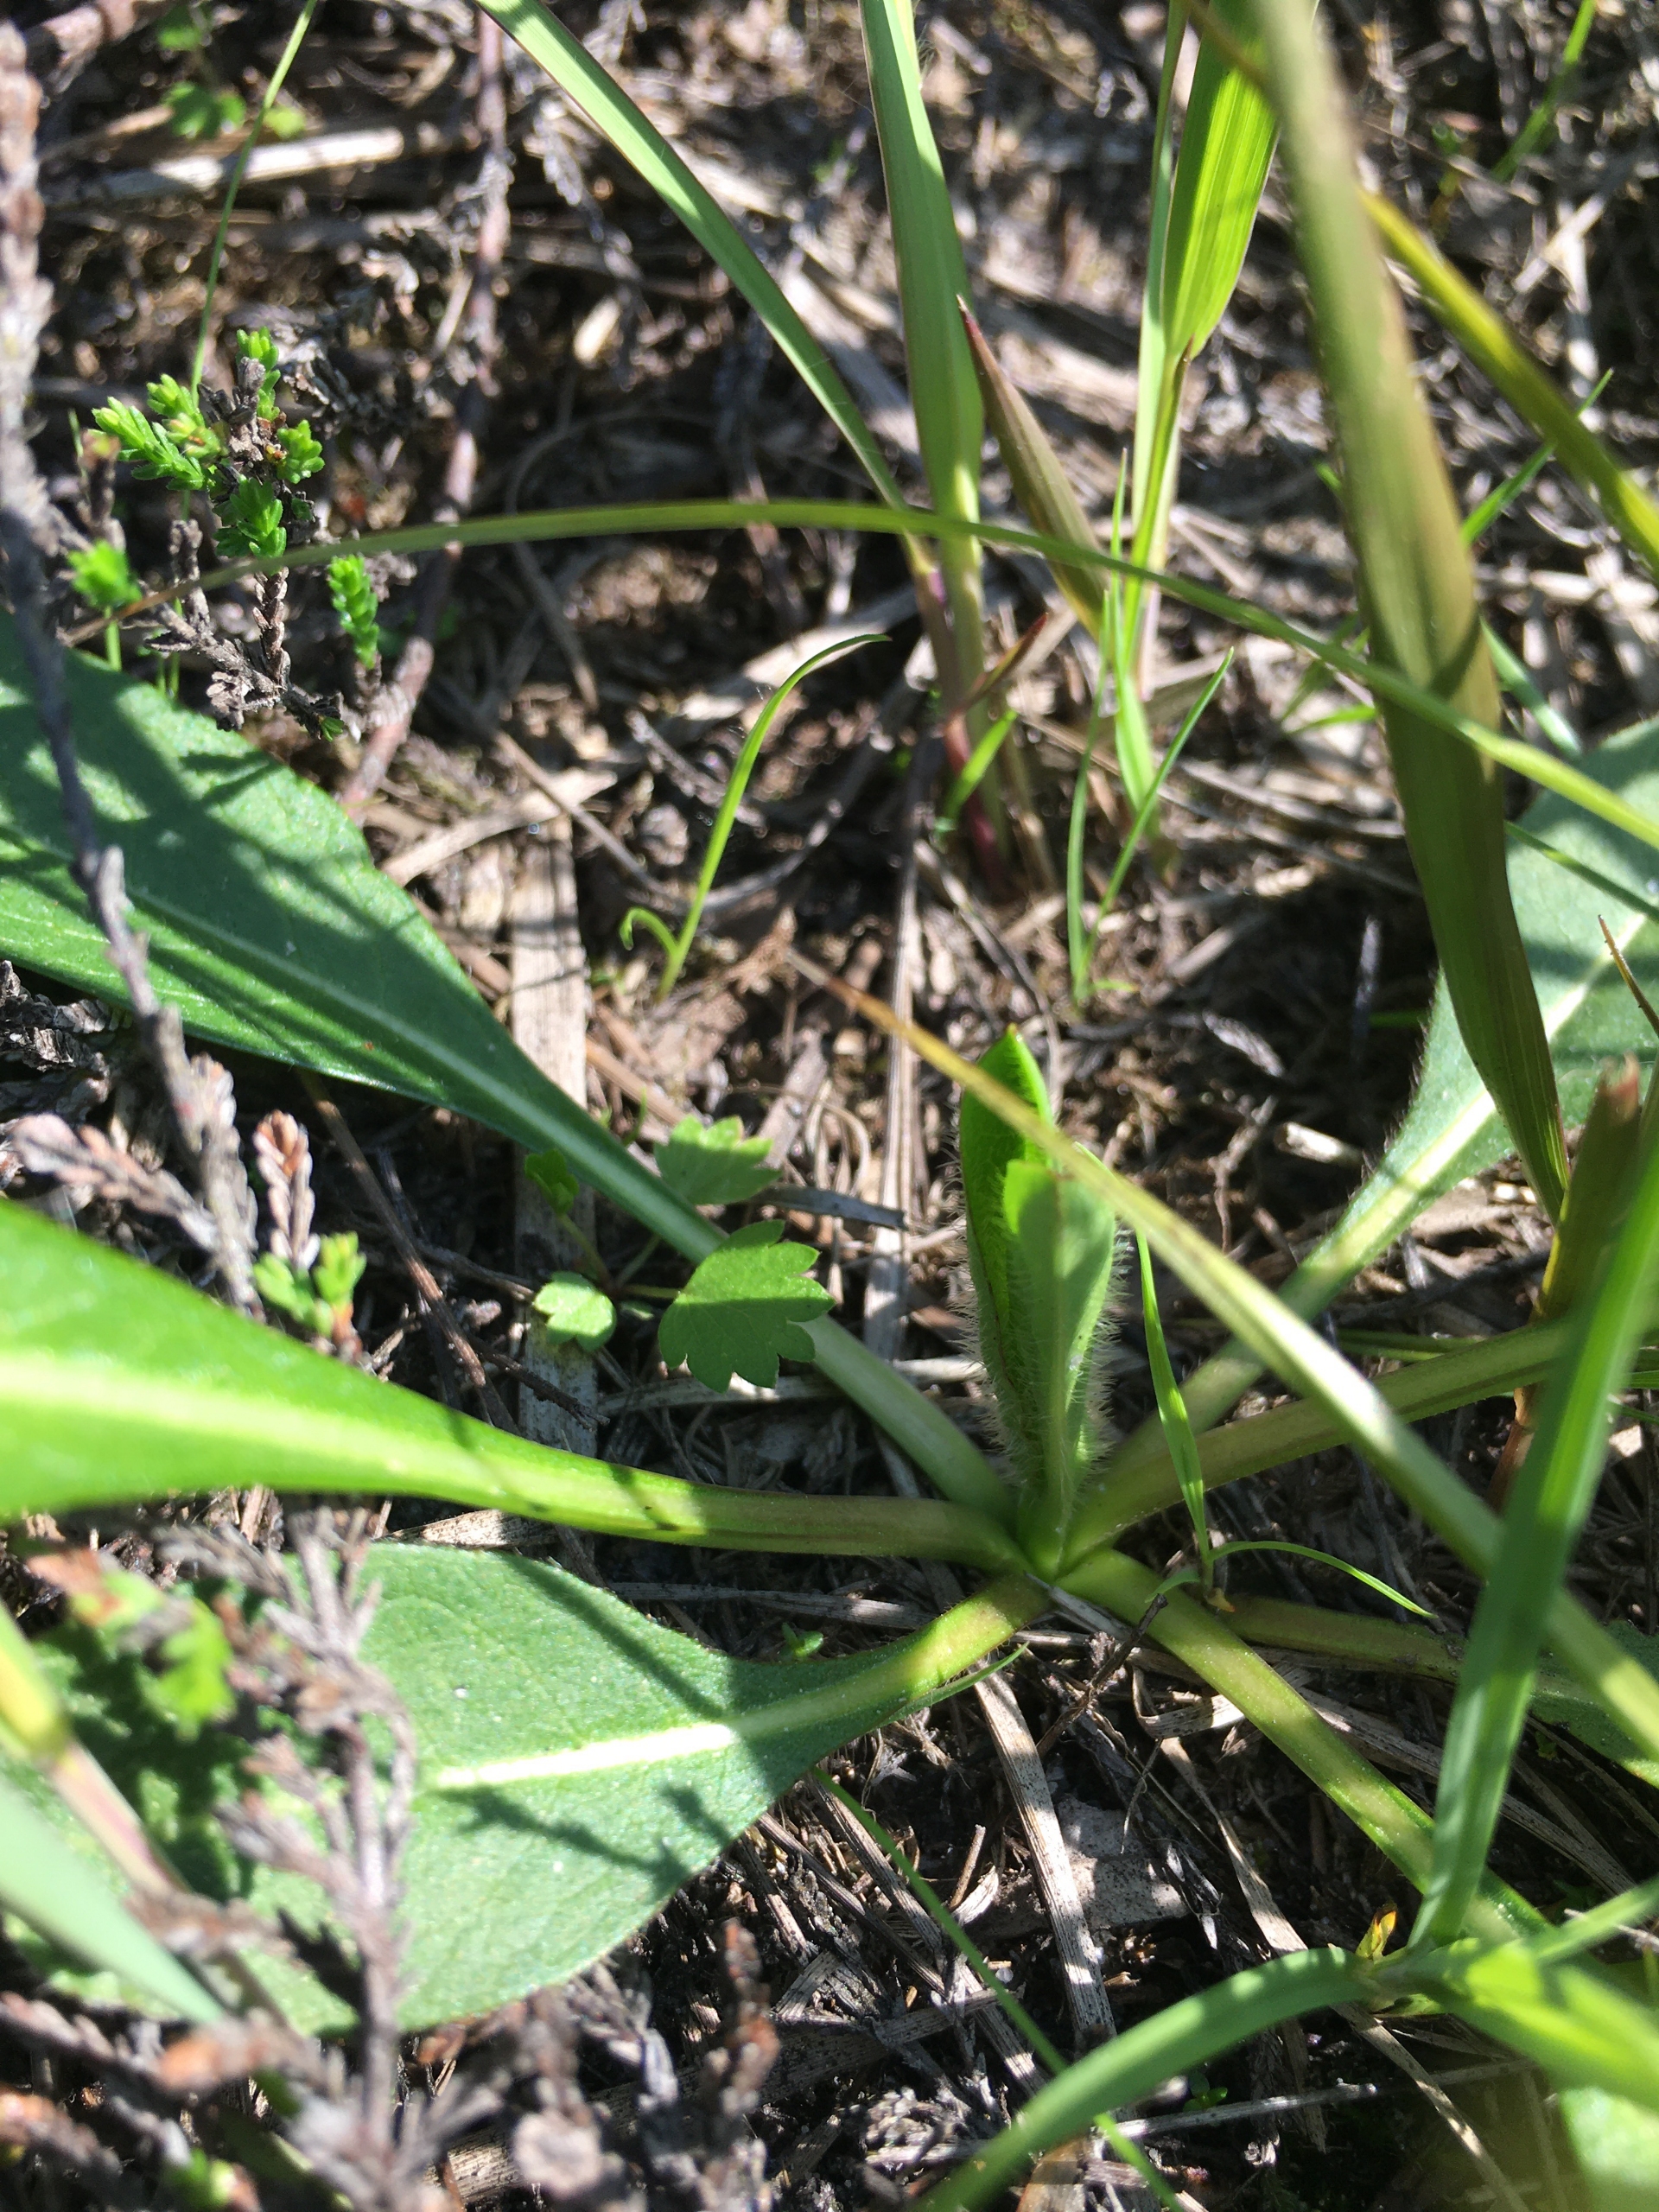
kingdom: Plantae
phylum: Tracheophyta
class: Magnoliopsida
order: Dipsacales
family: Caprifoliaceae
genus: Succisa
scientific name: Succisa pratensis
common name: Djævelsbid
